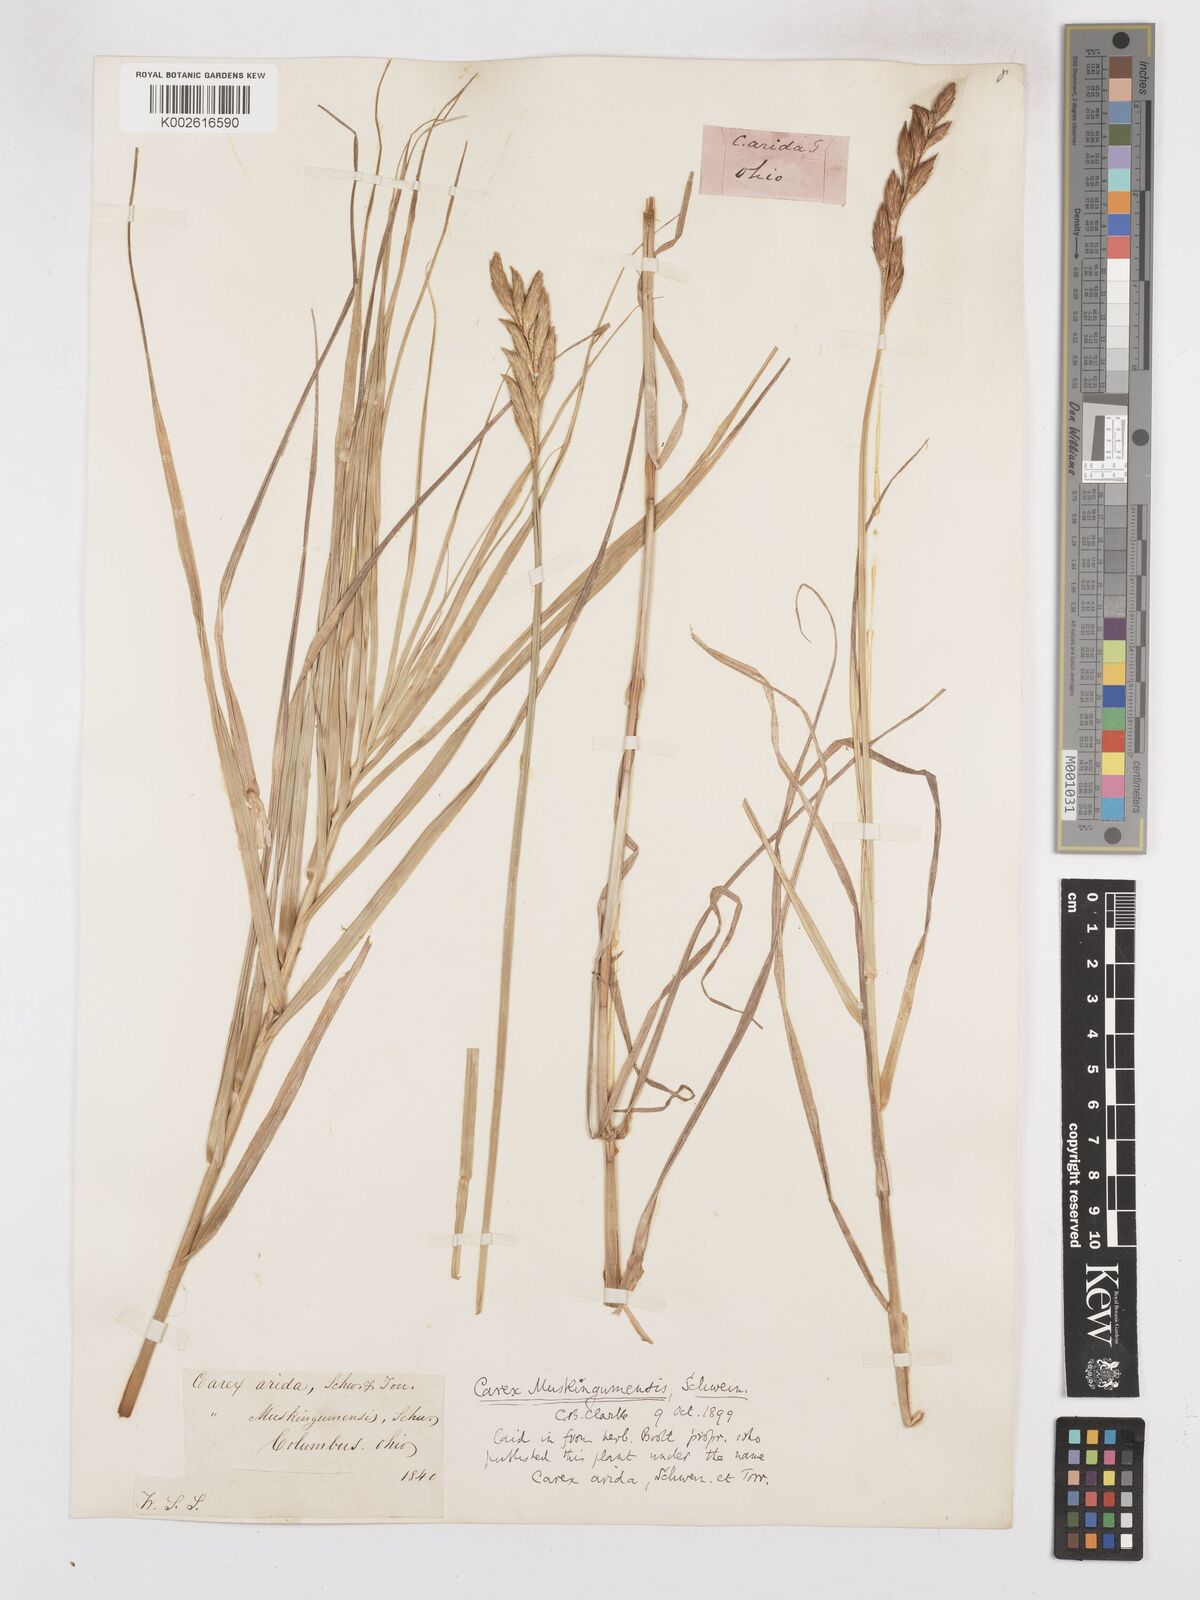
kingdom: Plantae
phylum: Tracheophyta
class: Liliopsida
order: Poales
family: Cyperaceae
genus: Carex
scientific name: Carex muskingumensis
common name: Muskingum sedge
